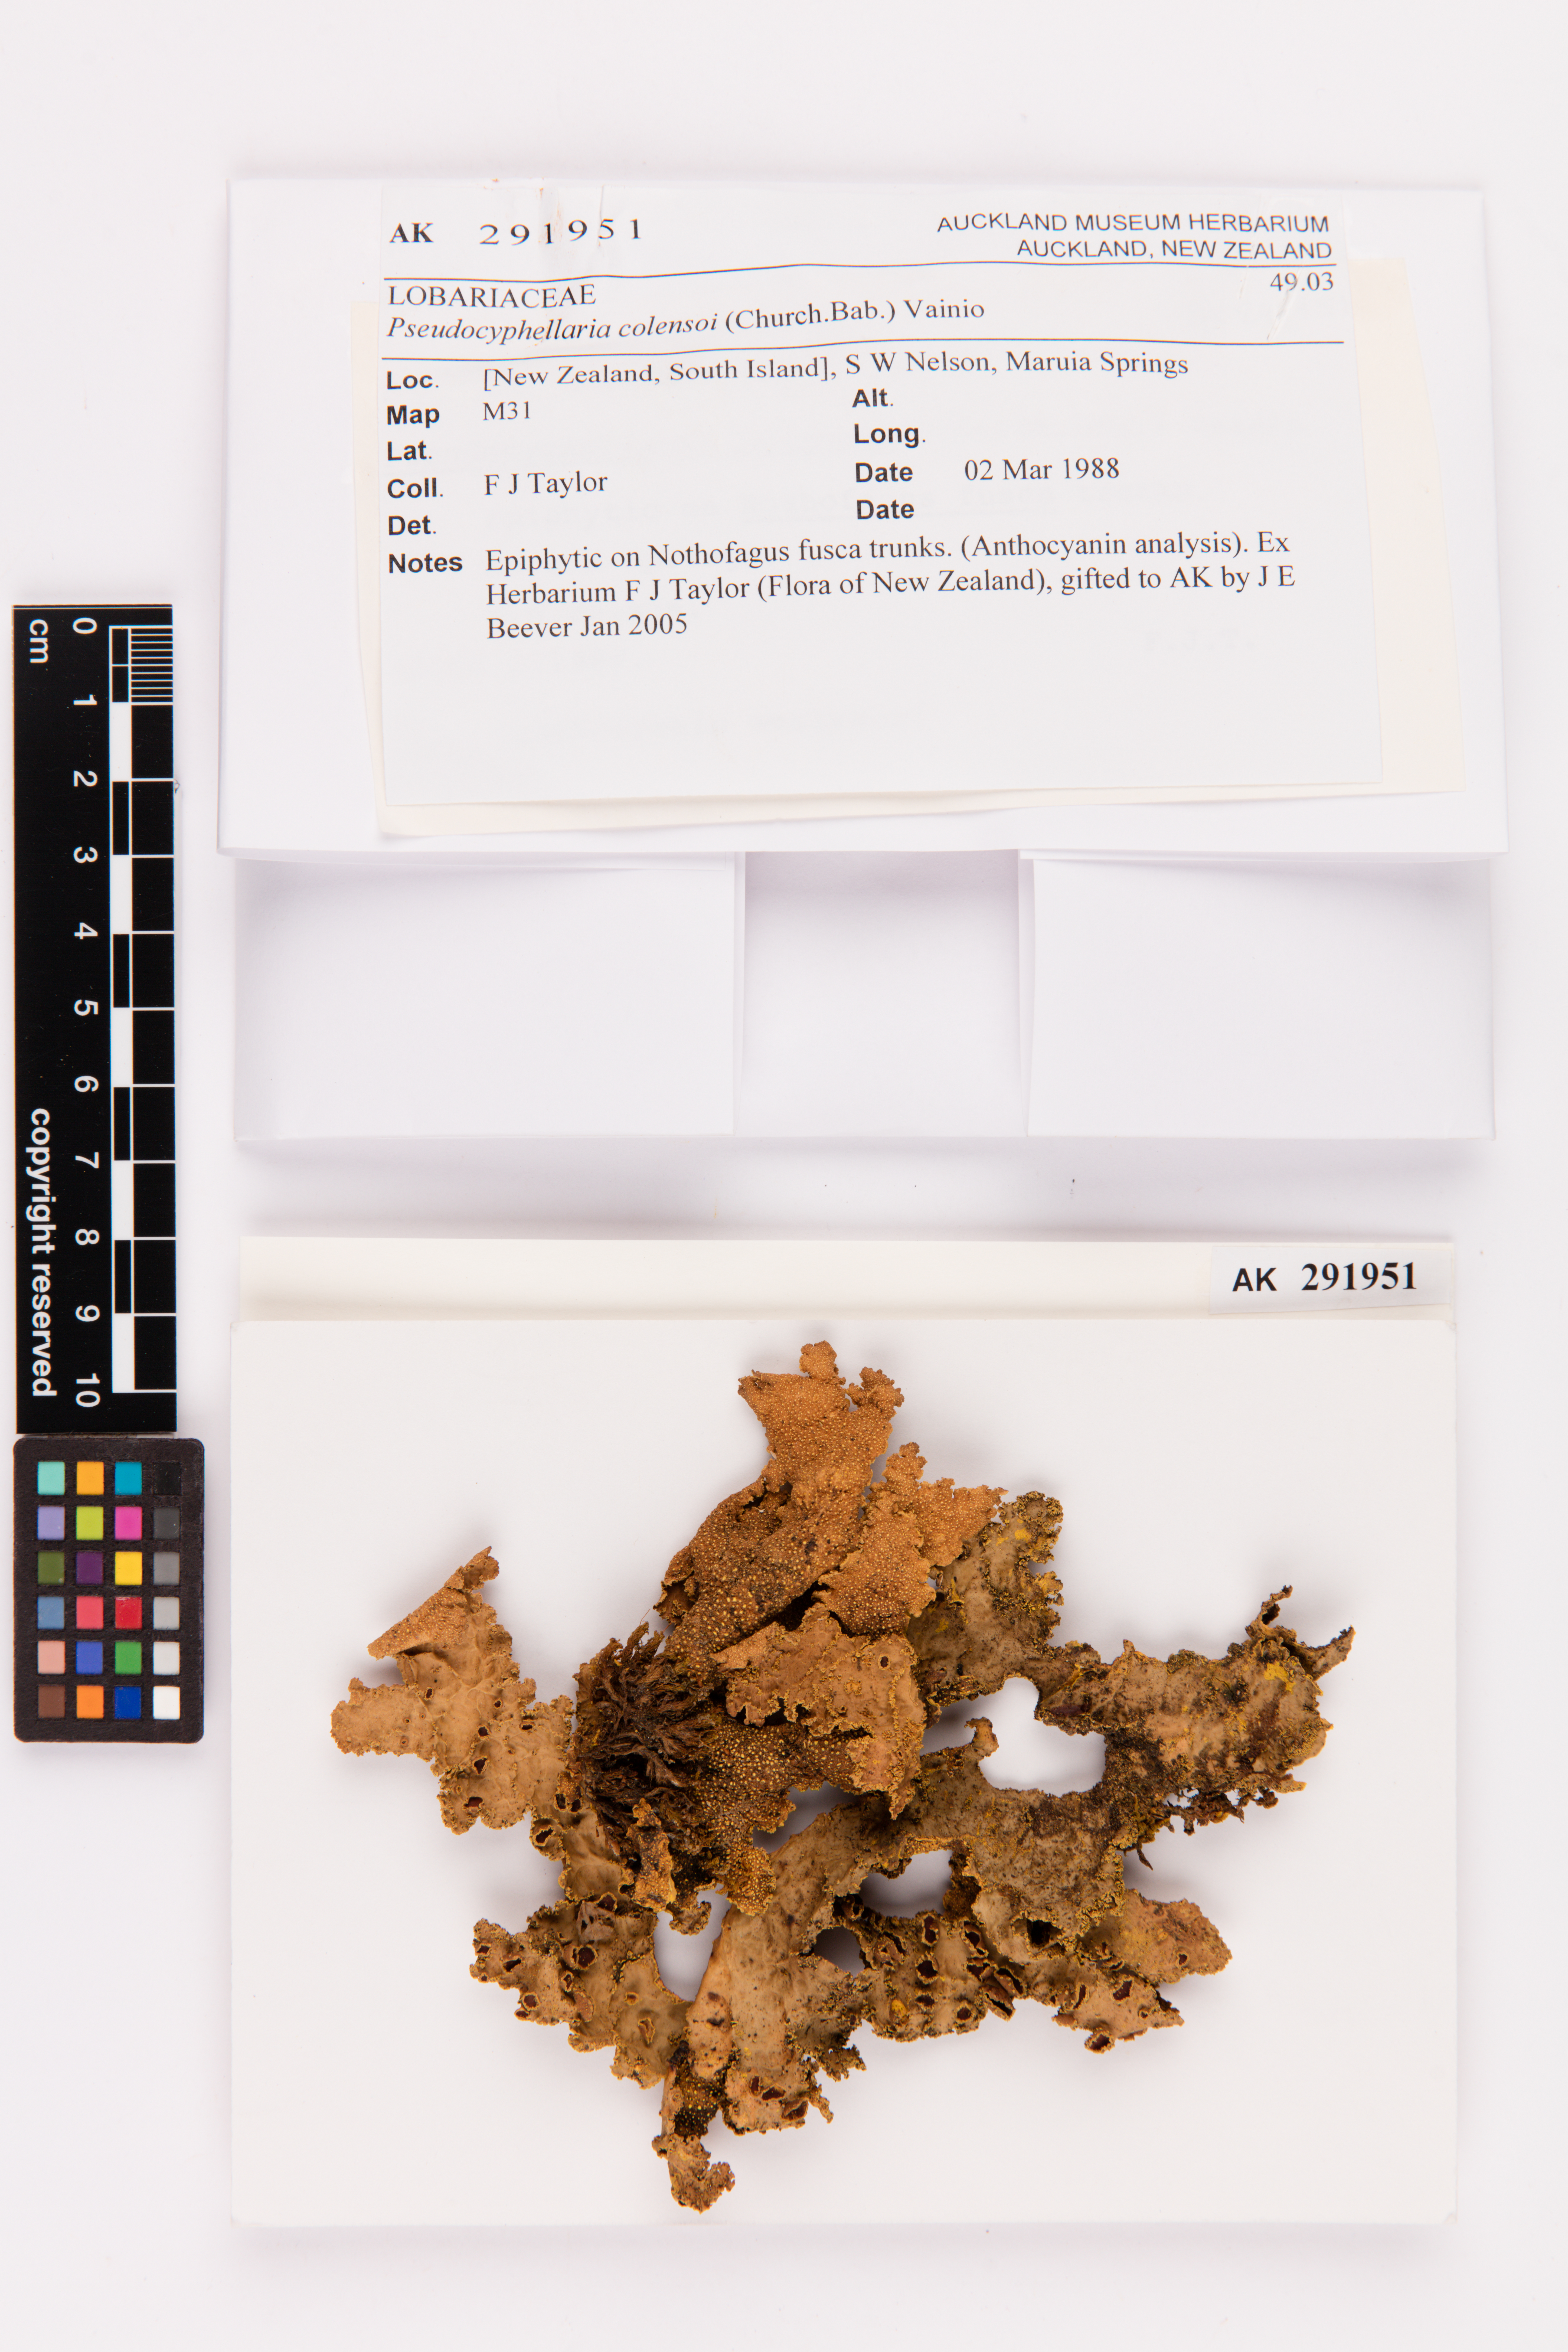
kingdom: Fungi
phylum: Ascomycota
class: Lecanoromycetes
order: Lecanorales
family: Parmeliaceae
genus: Menegazzia
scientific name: Menegazzia testacea
